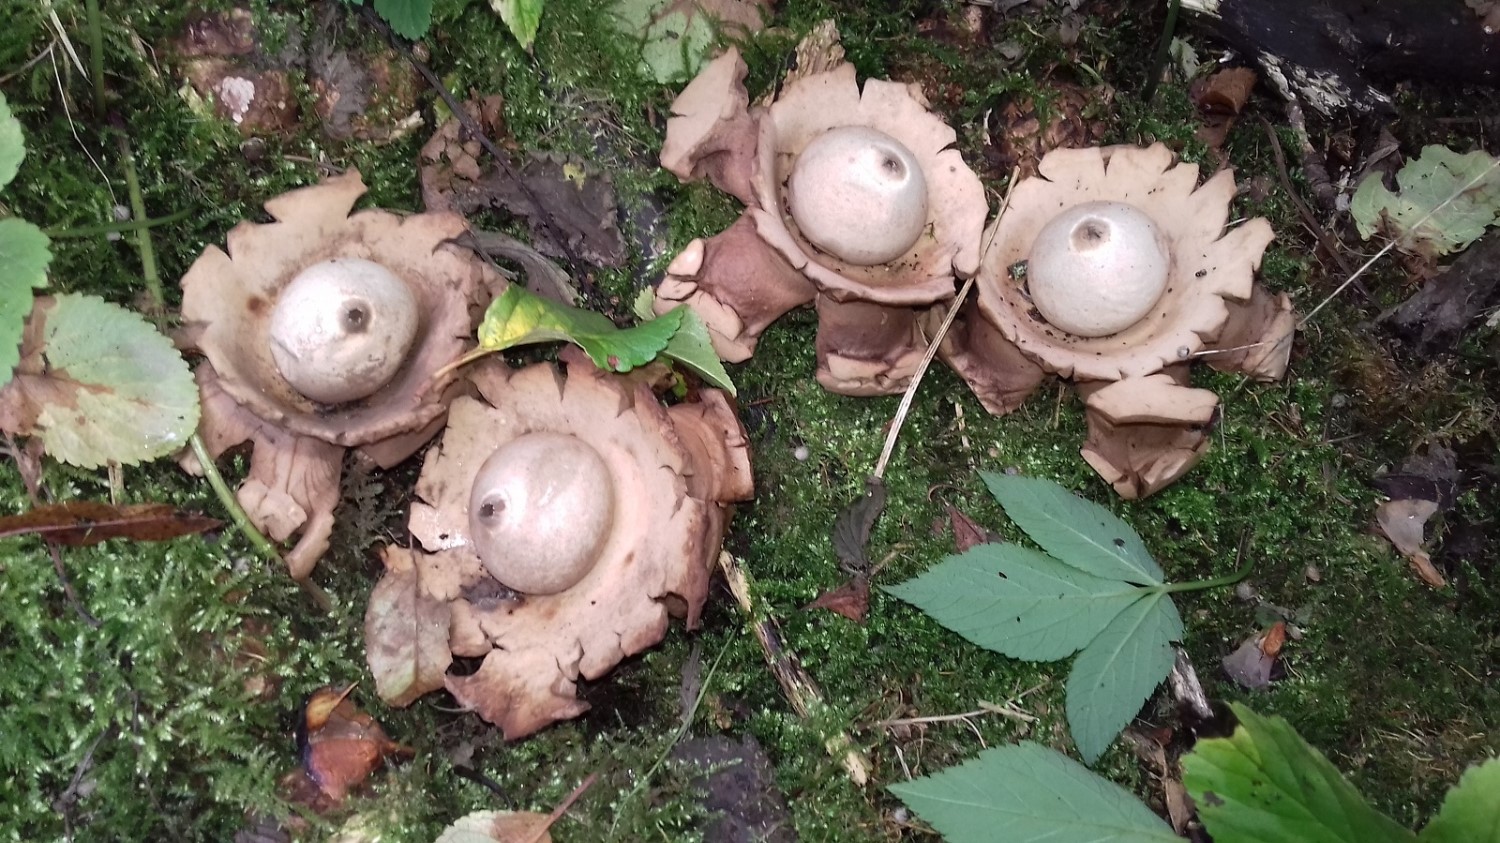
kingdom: Fungi
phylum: Basidiomycota
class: Agaricomycetes
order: Geastrales
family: Geastraceae
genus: Geastrum
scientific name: Geastrum michelianum
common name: kødet stjernebold
